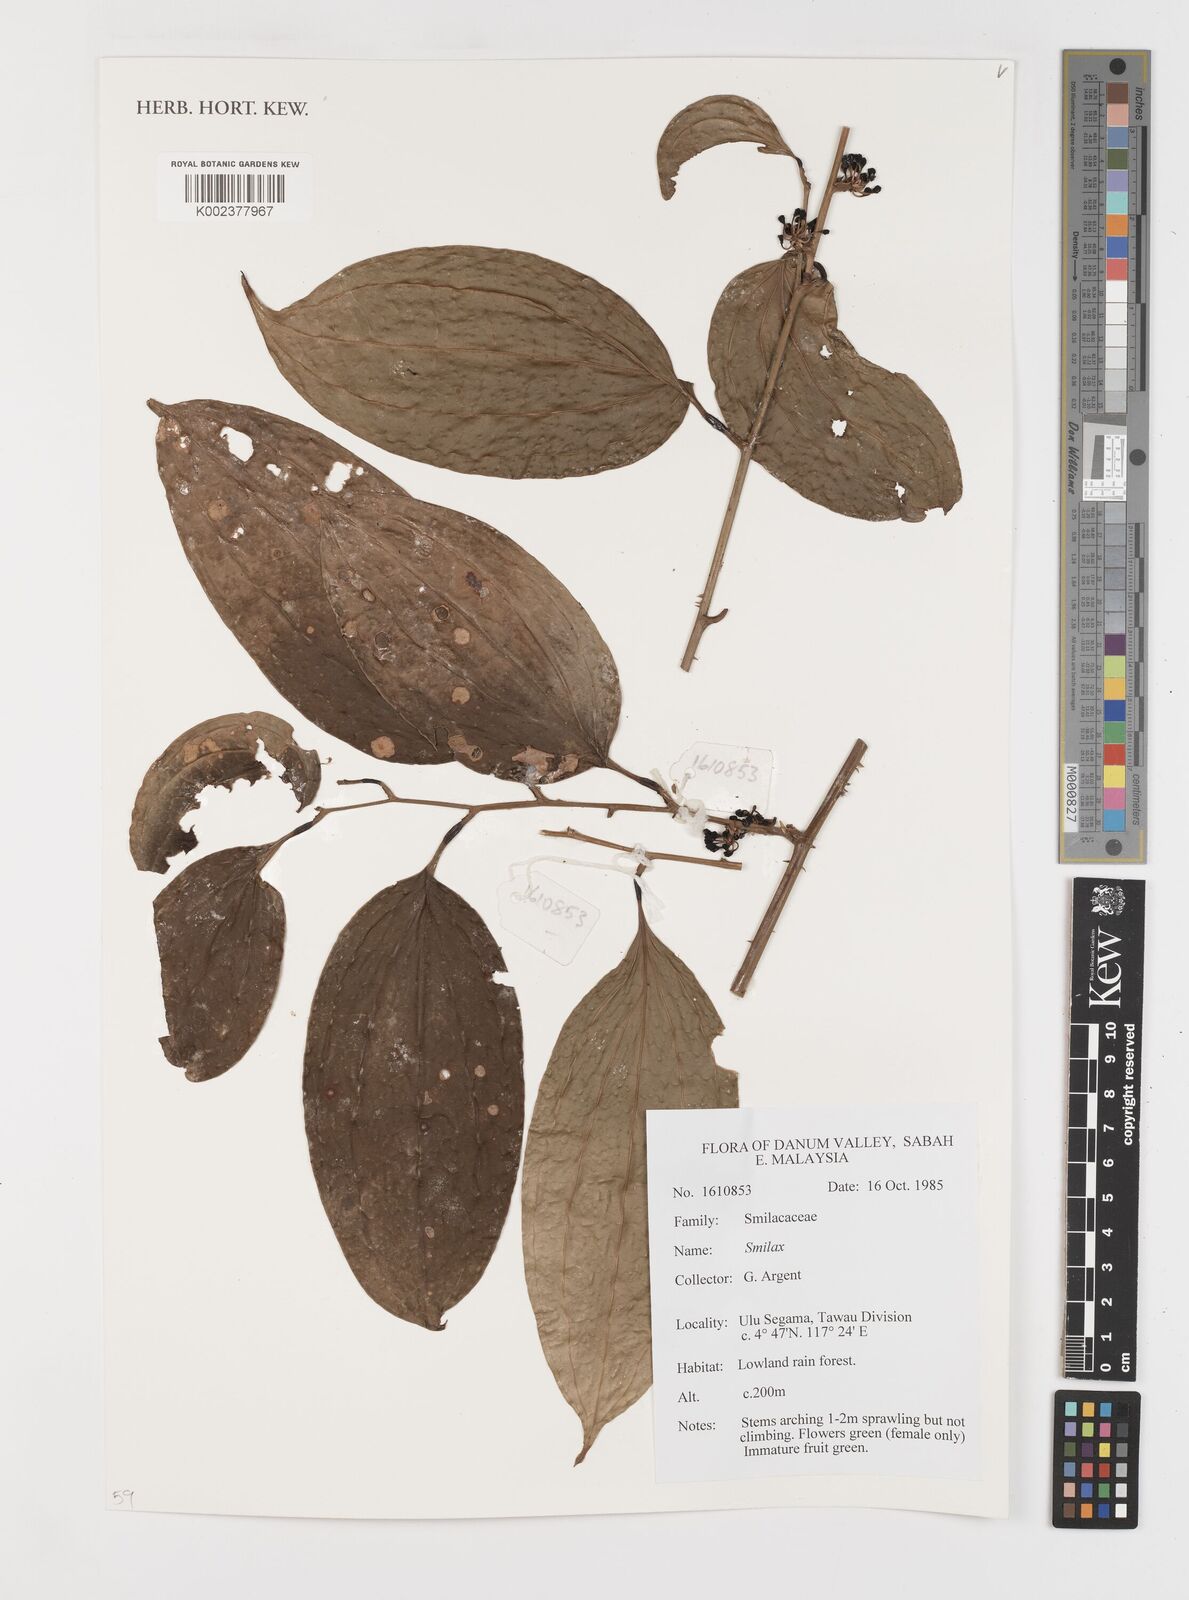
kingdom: Plantae
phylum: Tracheophyta
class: Liliopsida
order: Liliales
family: Smilacaceae
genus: Smilax
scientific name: Smilax
